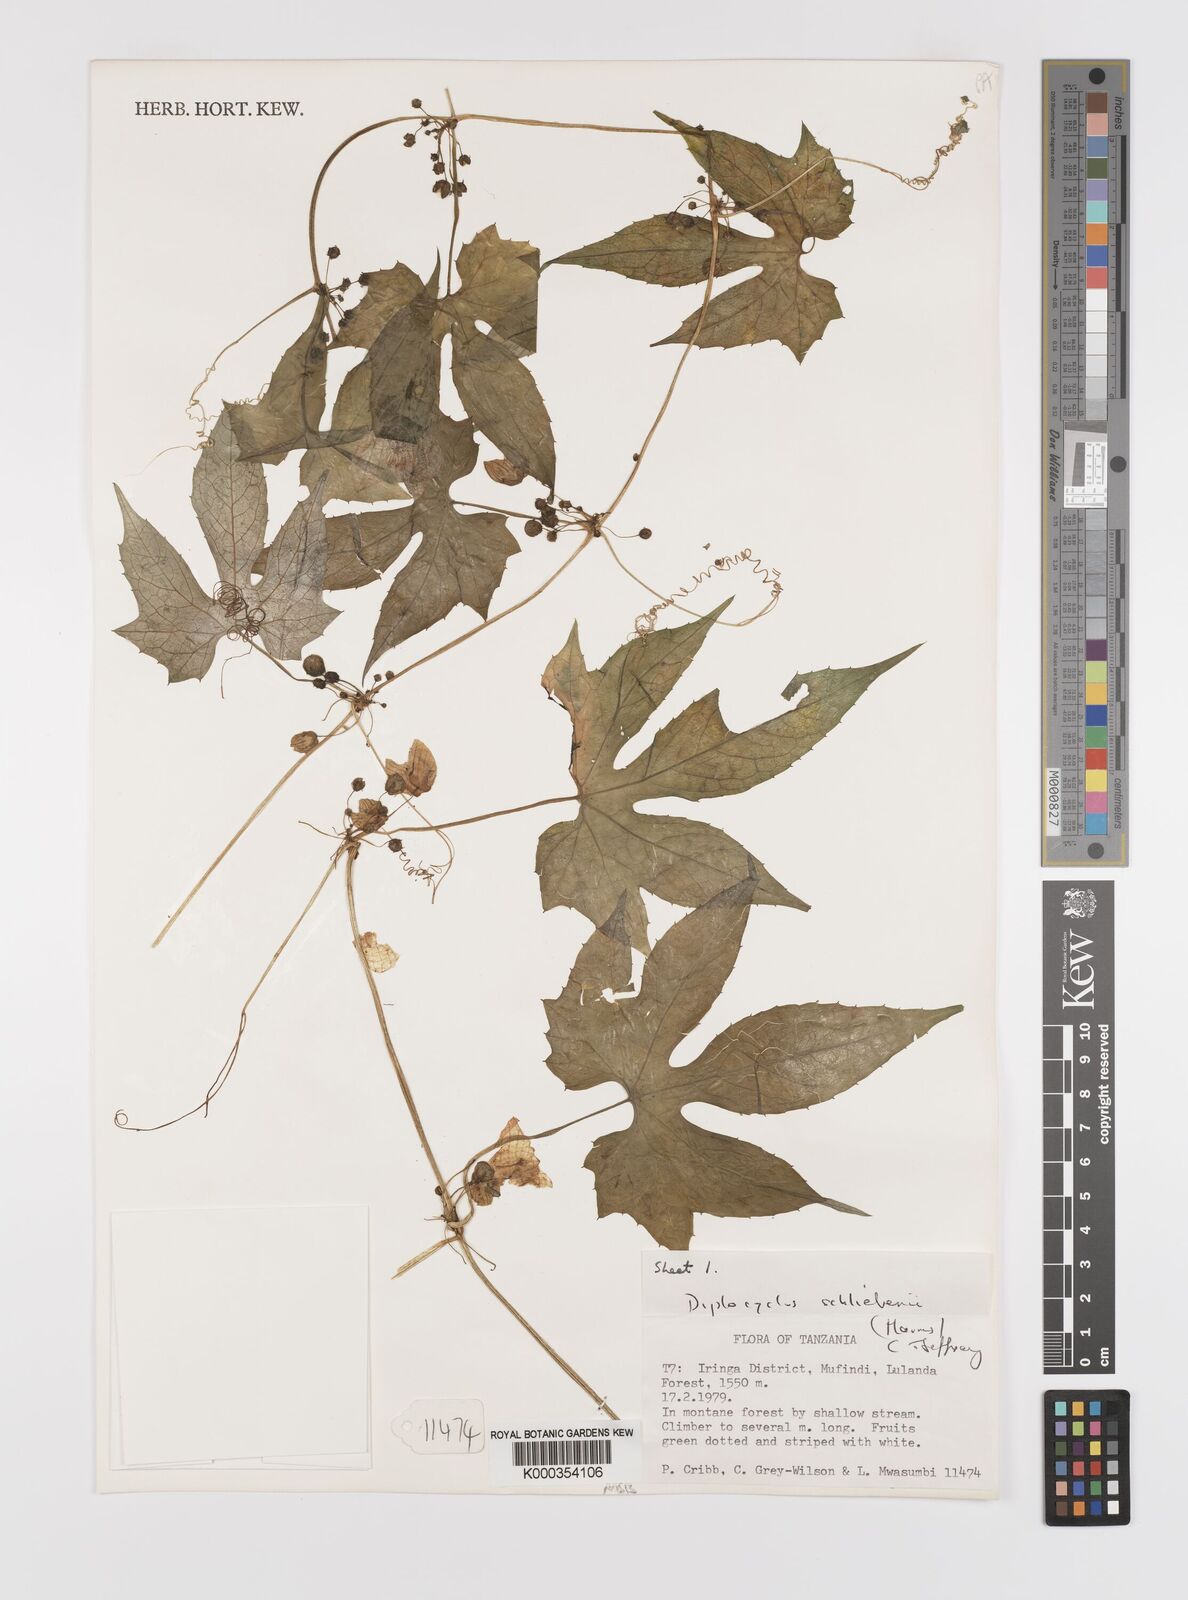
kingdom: Plantae
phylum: Tracheophyta
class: Magnoliopsida
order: Cucurbitales
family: Cucurbitaceae
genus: Diplocyclos
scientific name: Diplocyclos schliebenii
